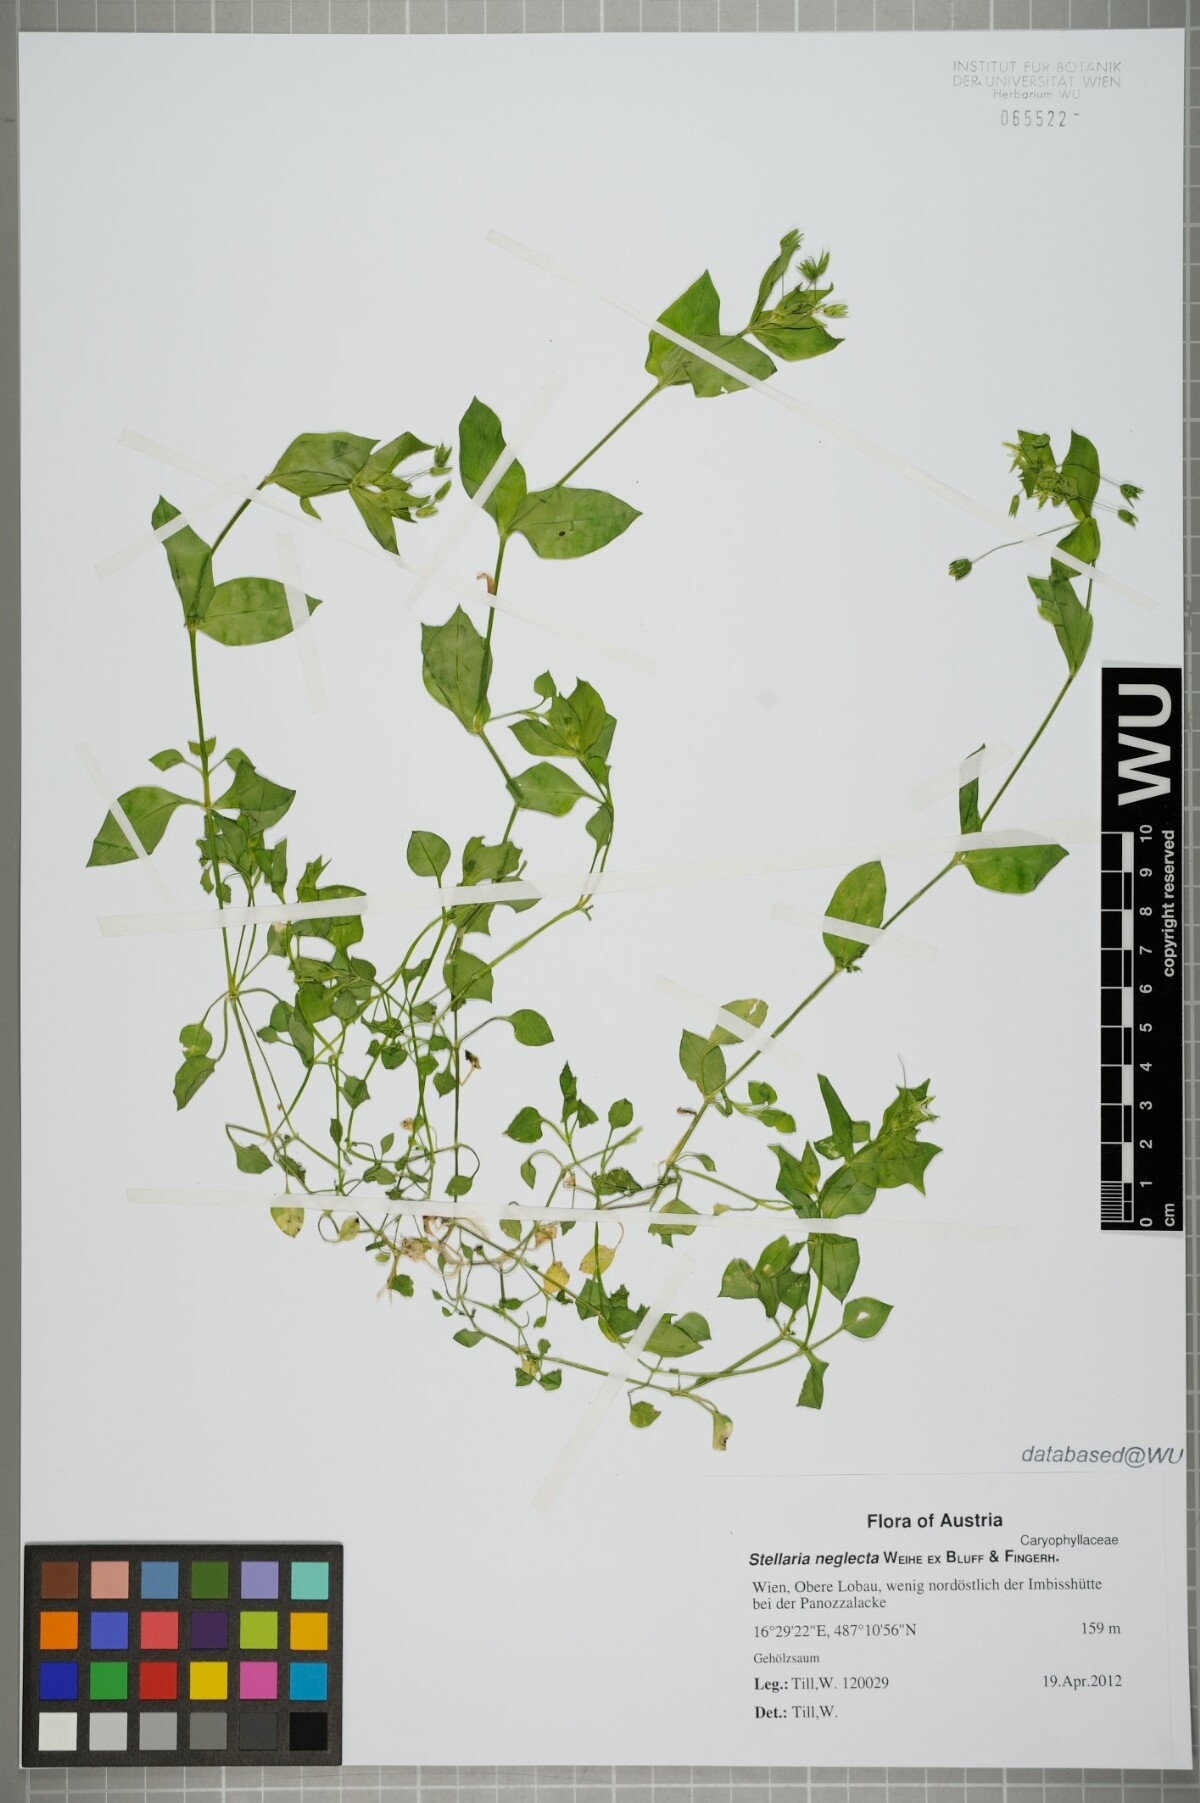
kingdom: Plantae
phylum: Tracheophyta
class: Magnoliopsida
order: Caryophyllales
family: Caryophyllaceae
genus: Stellaria
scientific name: Stellaria neglecta
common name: Greater chickweed
